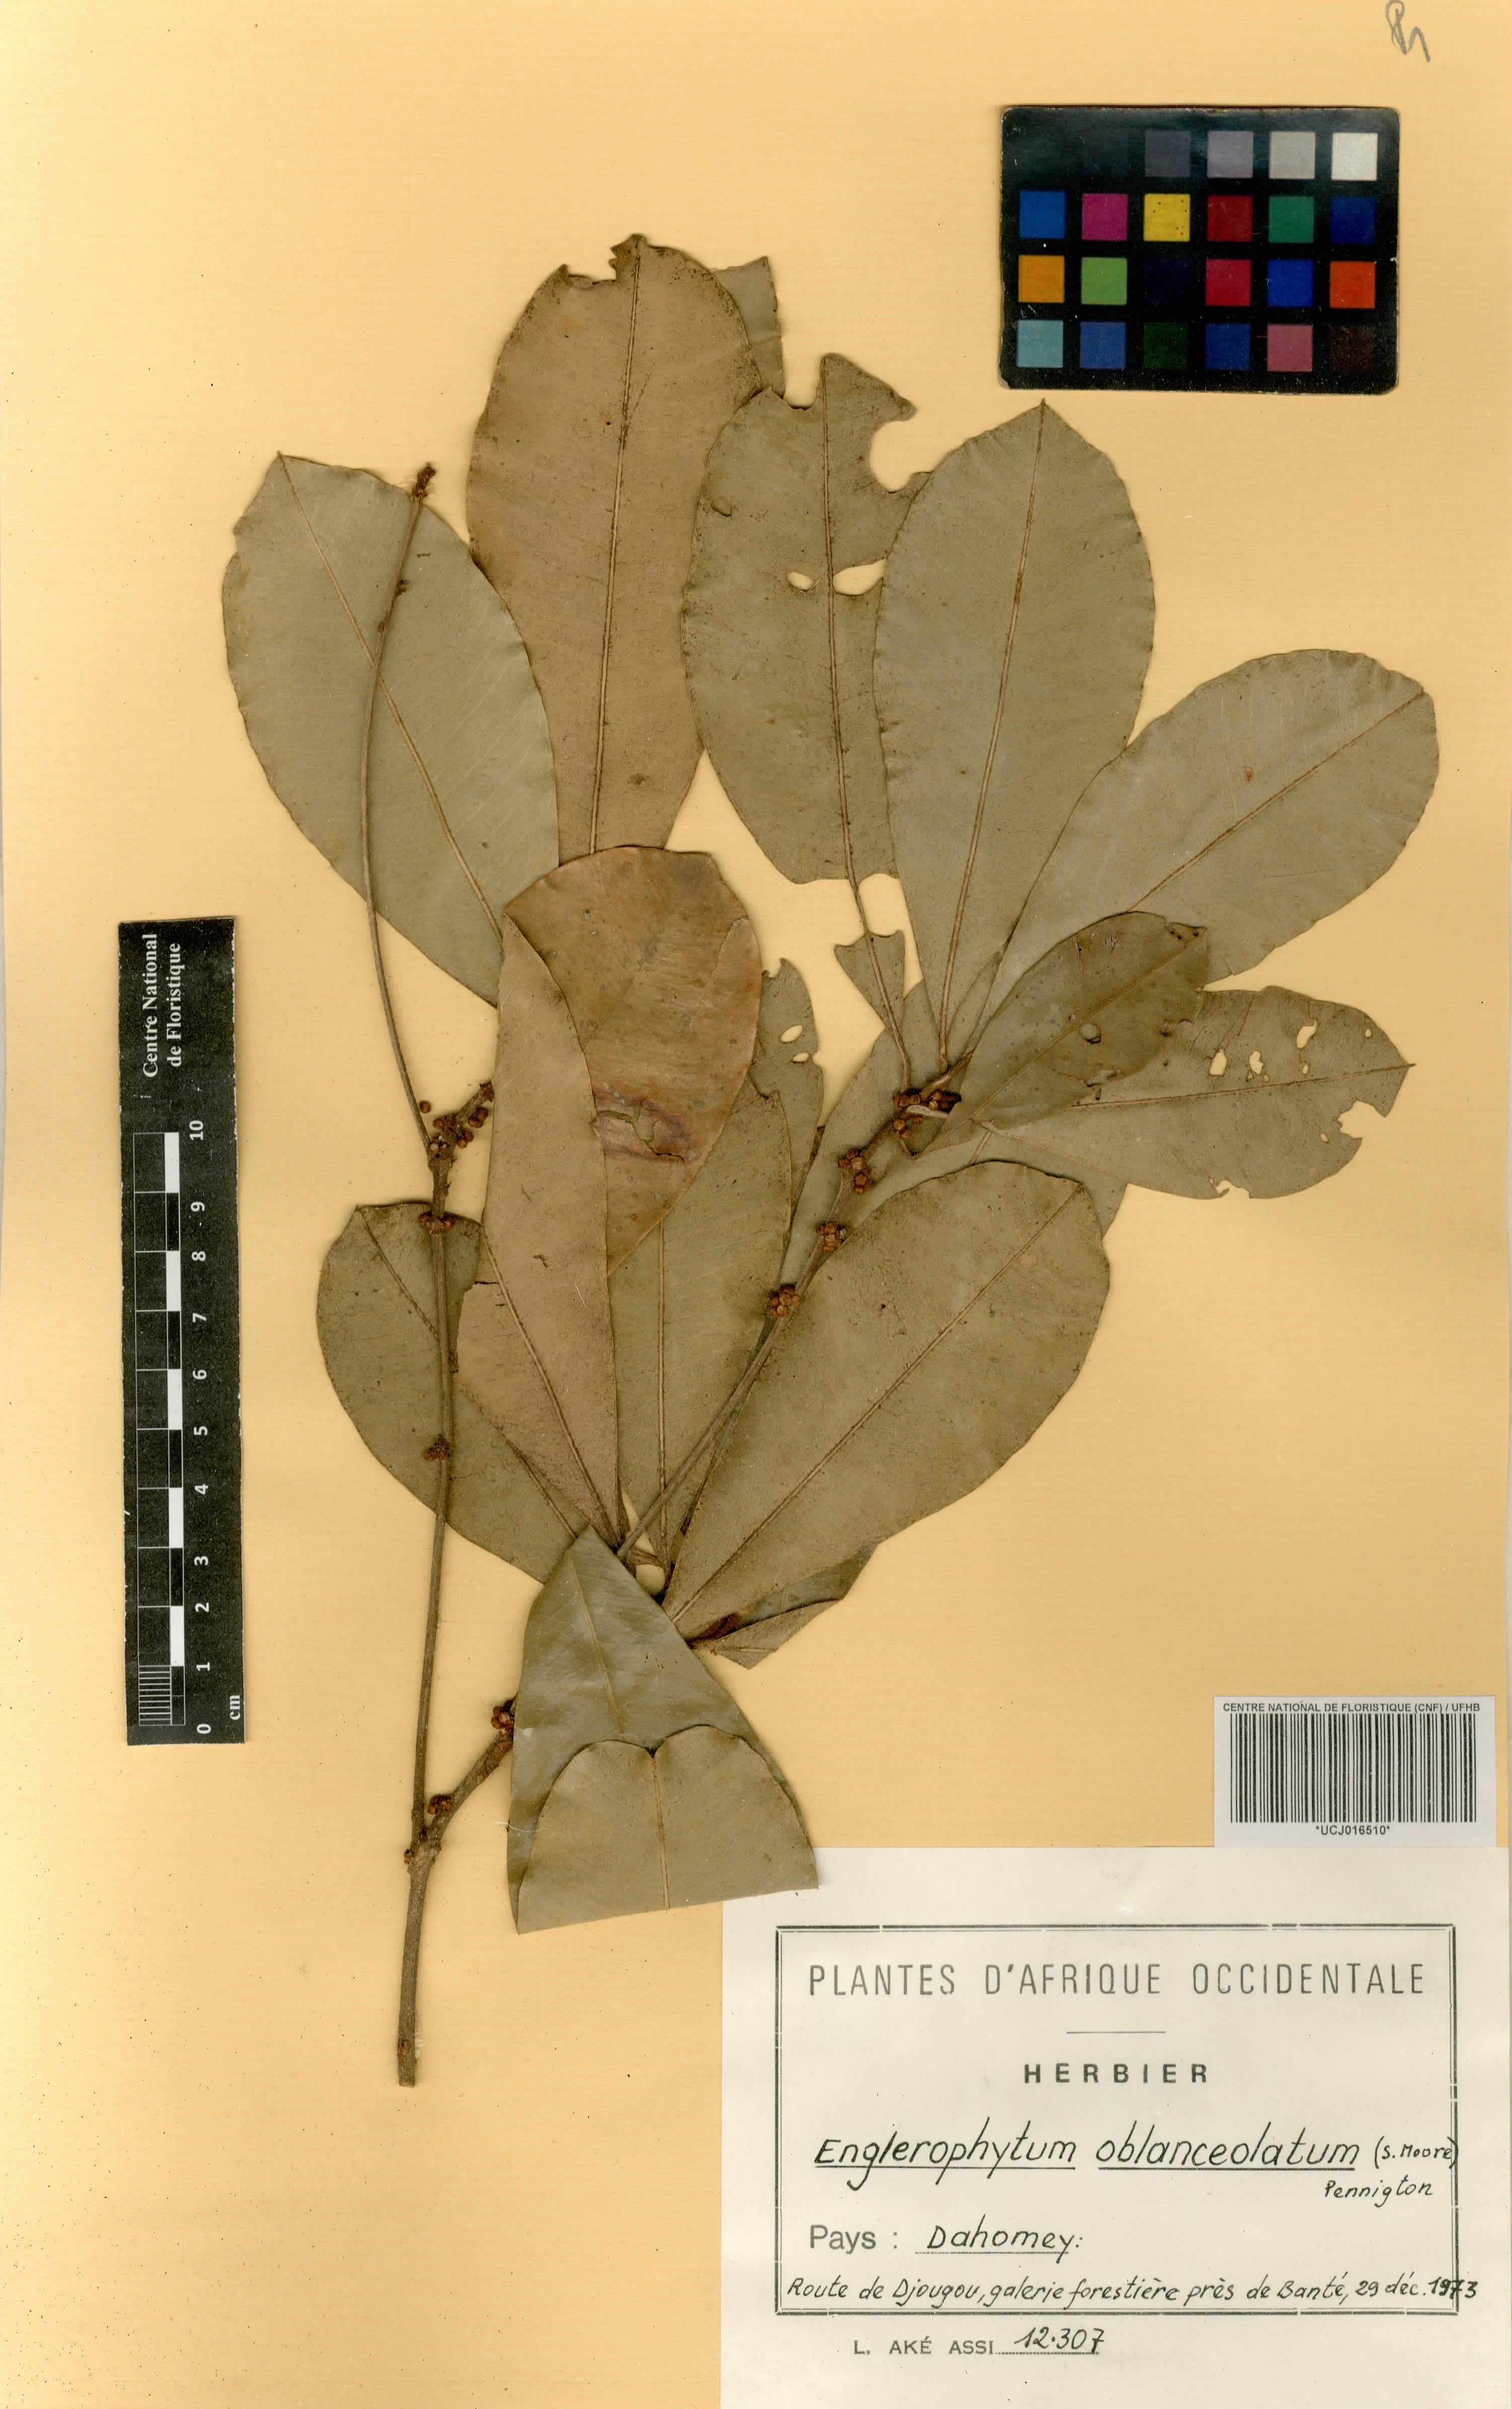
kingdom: Plantae
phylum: Tracheophyta
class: Magnoliopsida
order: Ericales
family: Sapotaceae
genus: Englerophytum
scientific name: Englerophytum oblanceolatum
